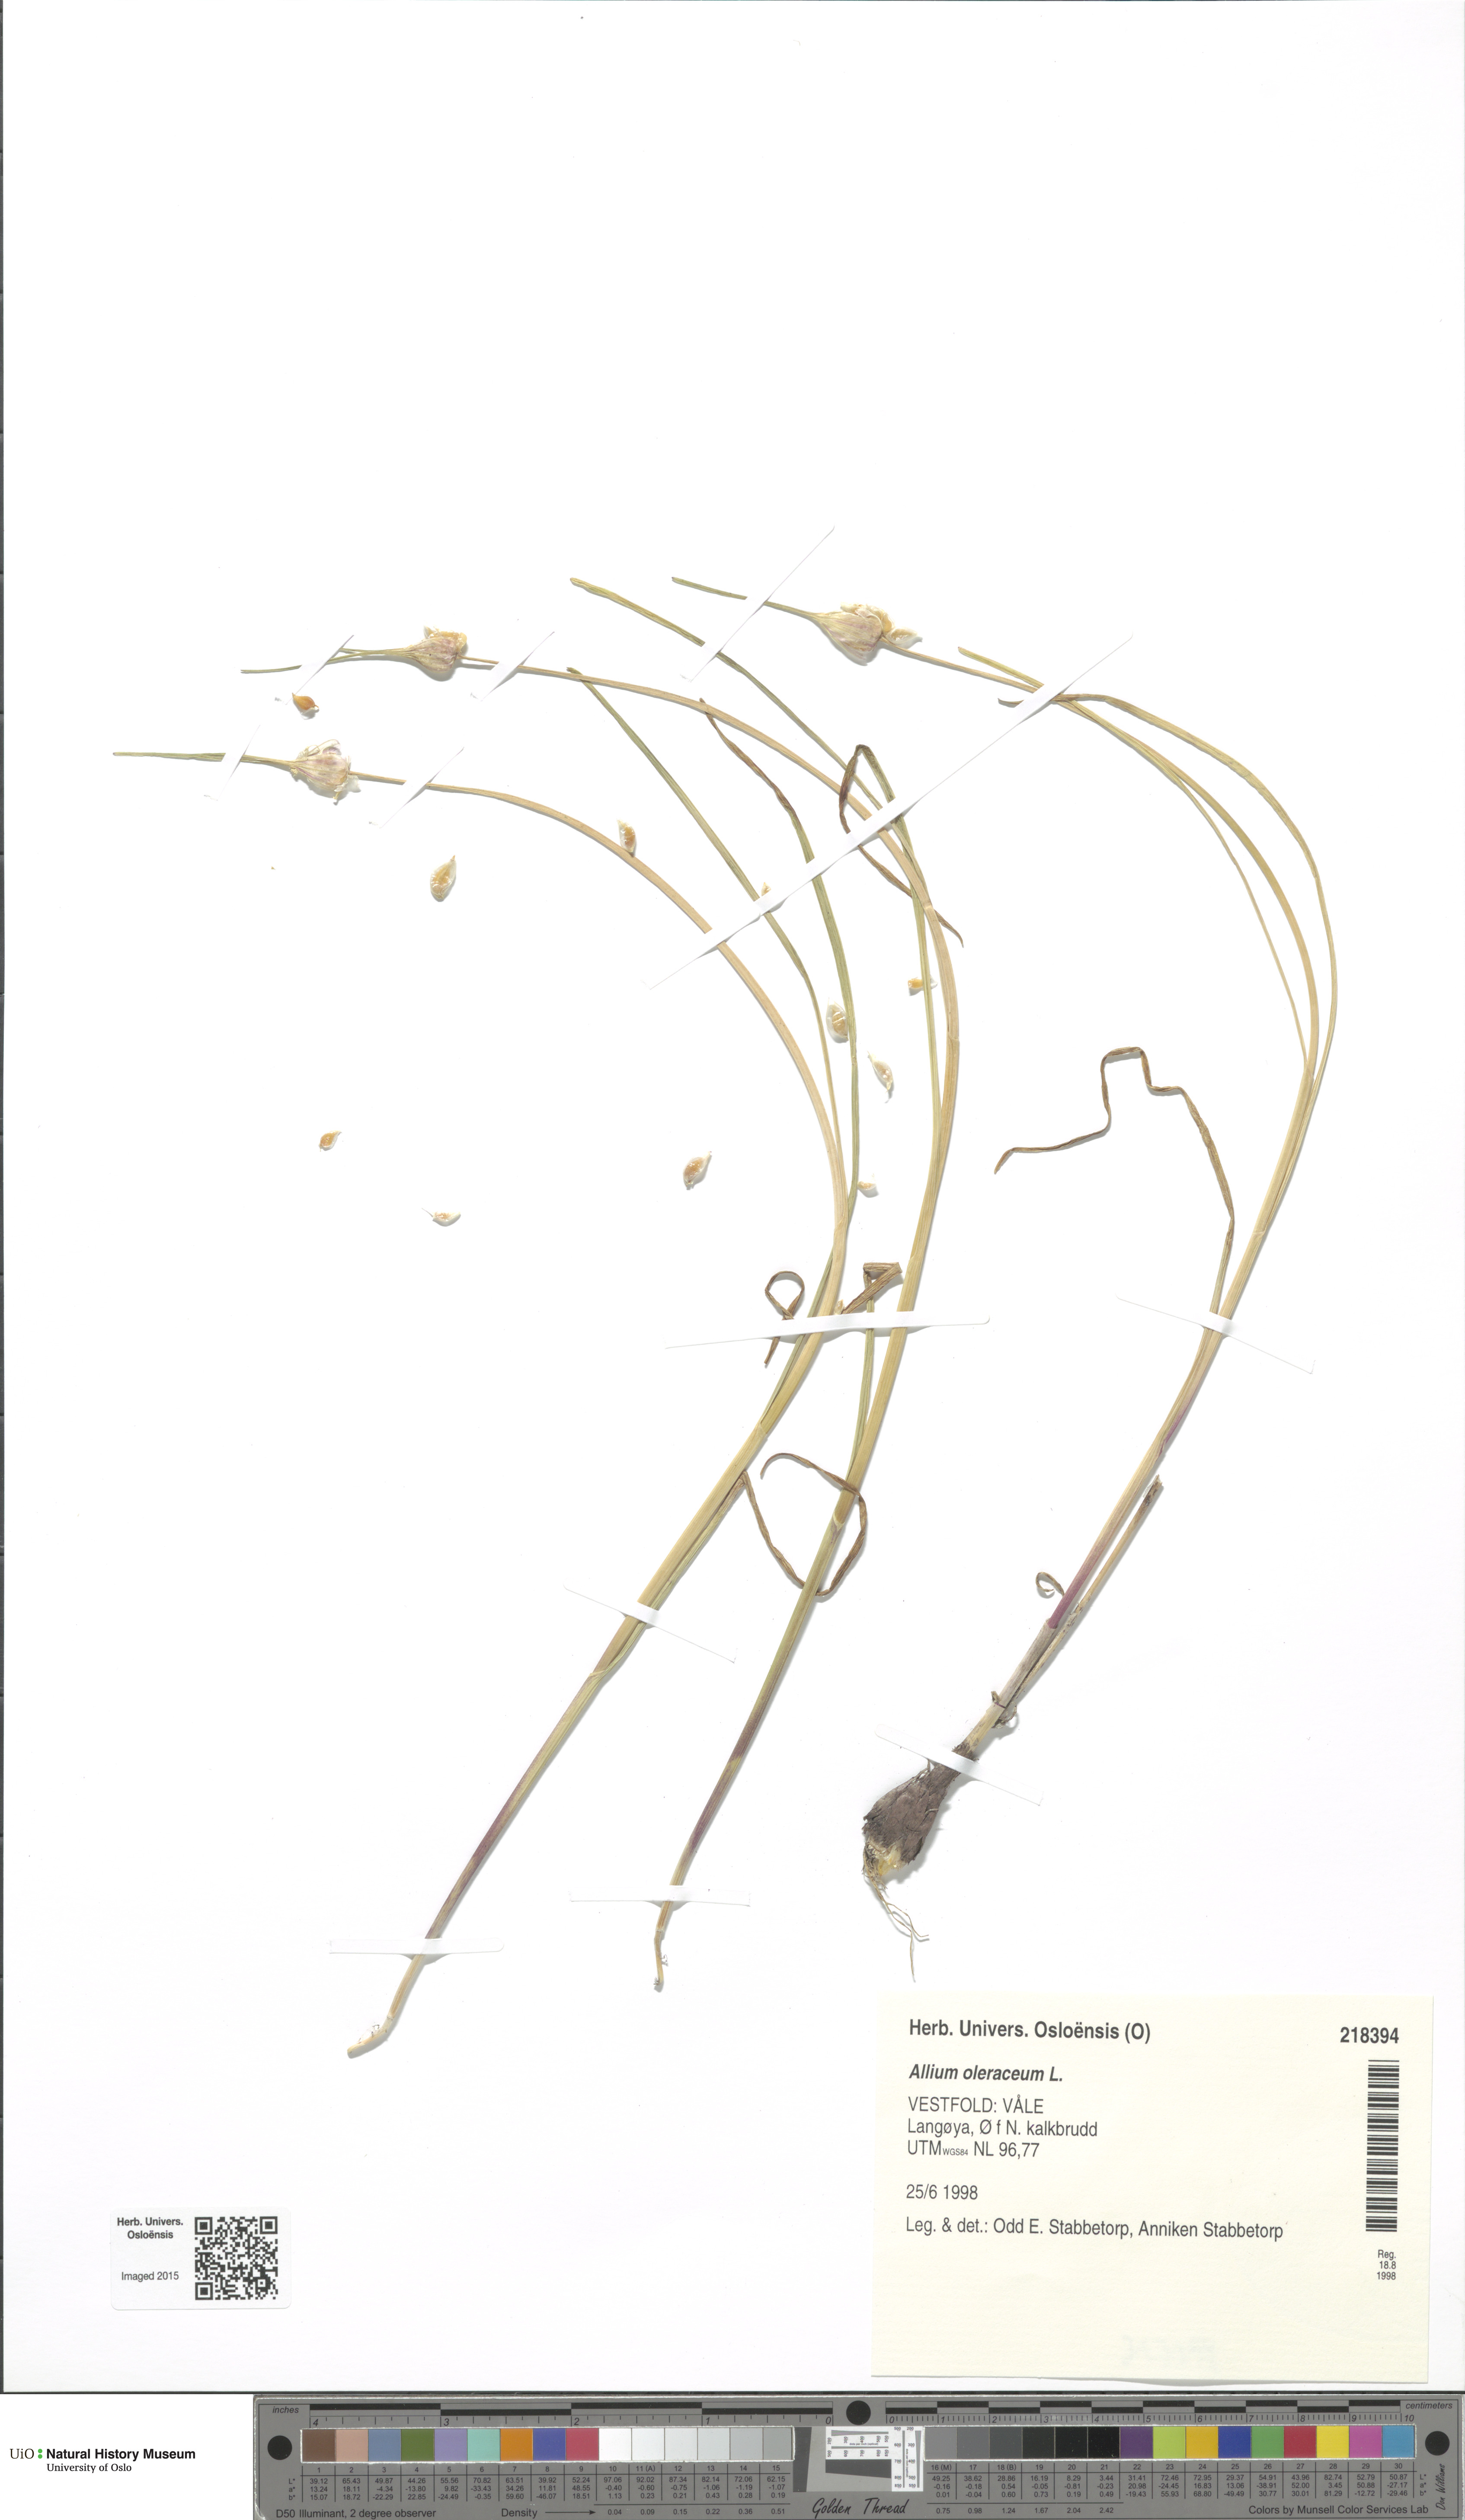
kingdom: Plantae
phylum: Tracheophyta
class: Liliopsida
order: Asparagales
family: Amaryllidaceae
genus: Allium
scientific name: Allium oleraceum
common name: Field garlic
